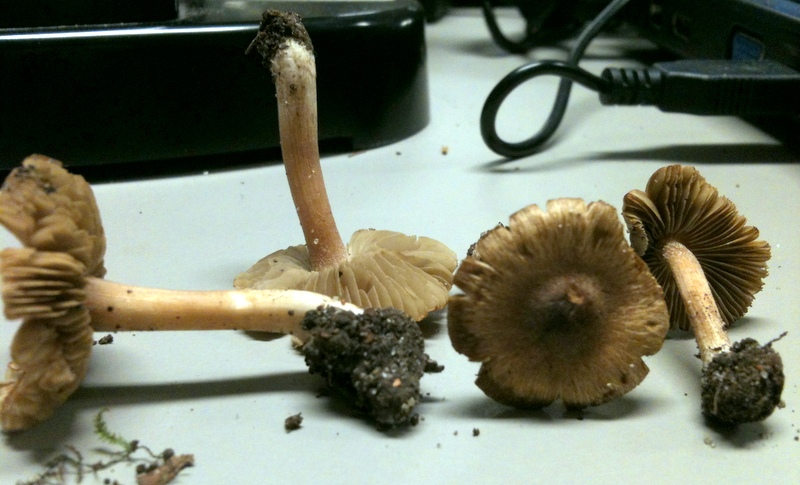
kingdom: Fungi
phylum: Basidiomycota
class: Agaricomycetes
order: Agaricales
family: Inocybaceae
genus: Inocybe
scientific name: Inocybe glabripes
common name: småsporet trævlhat
